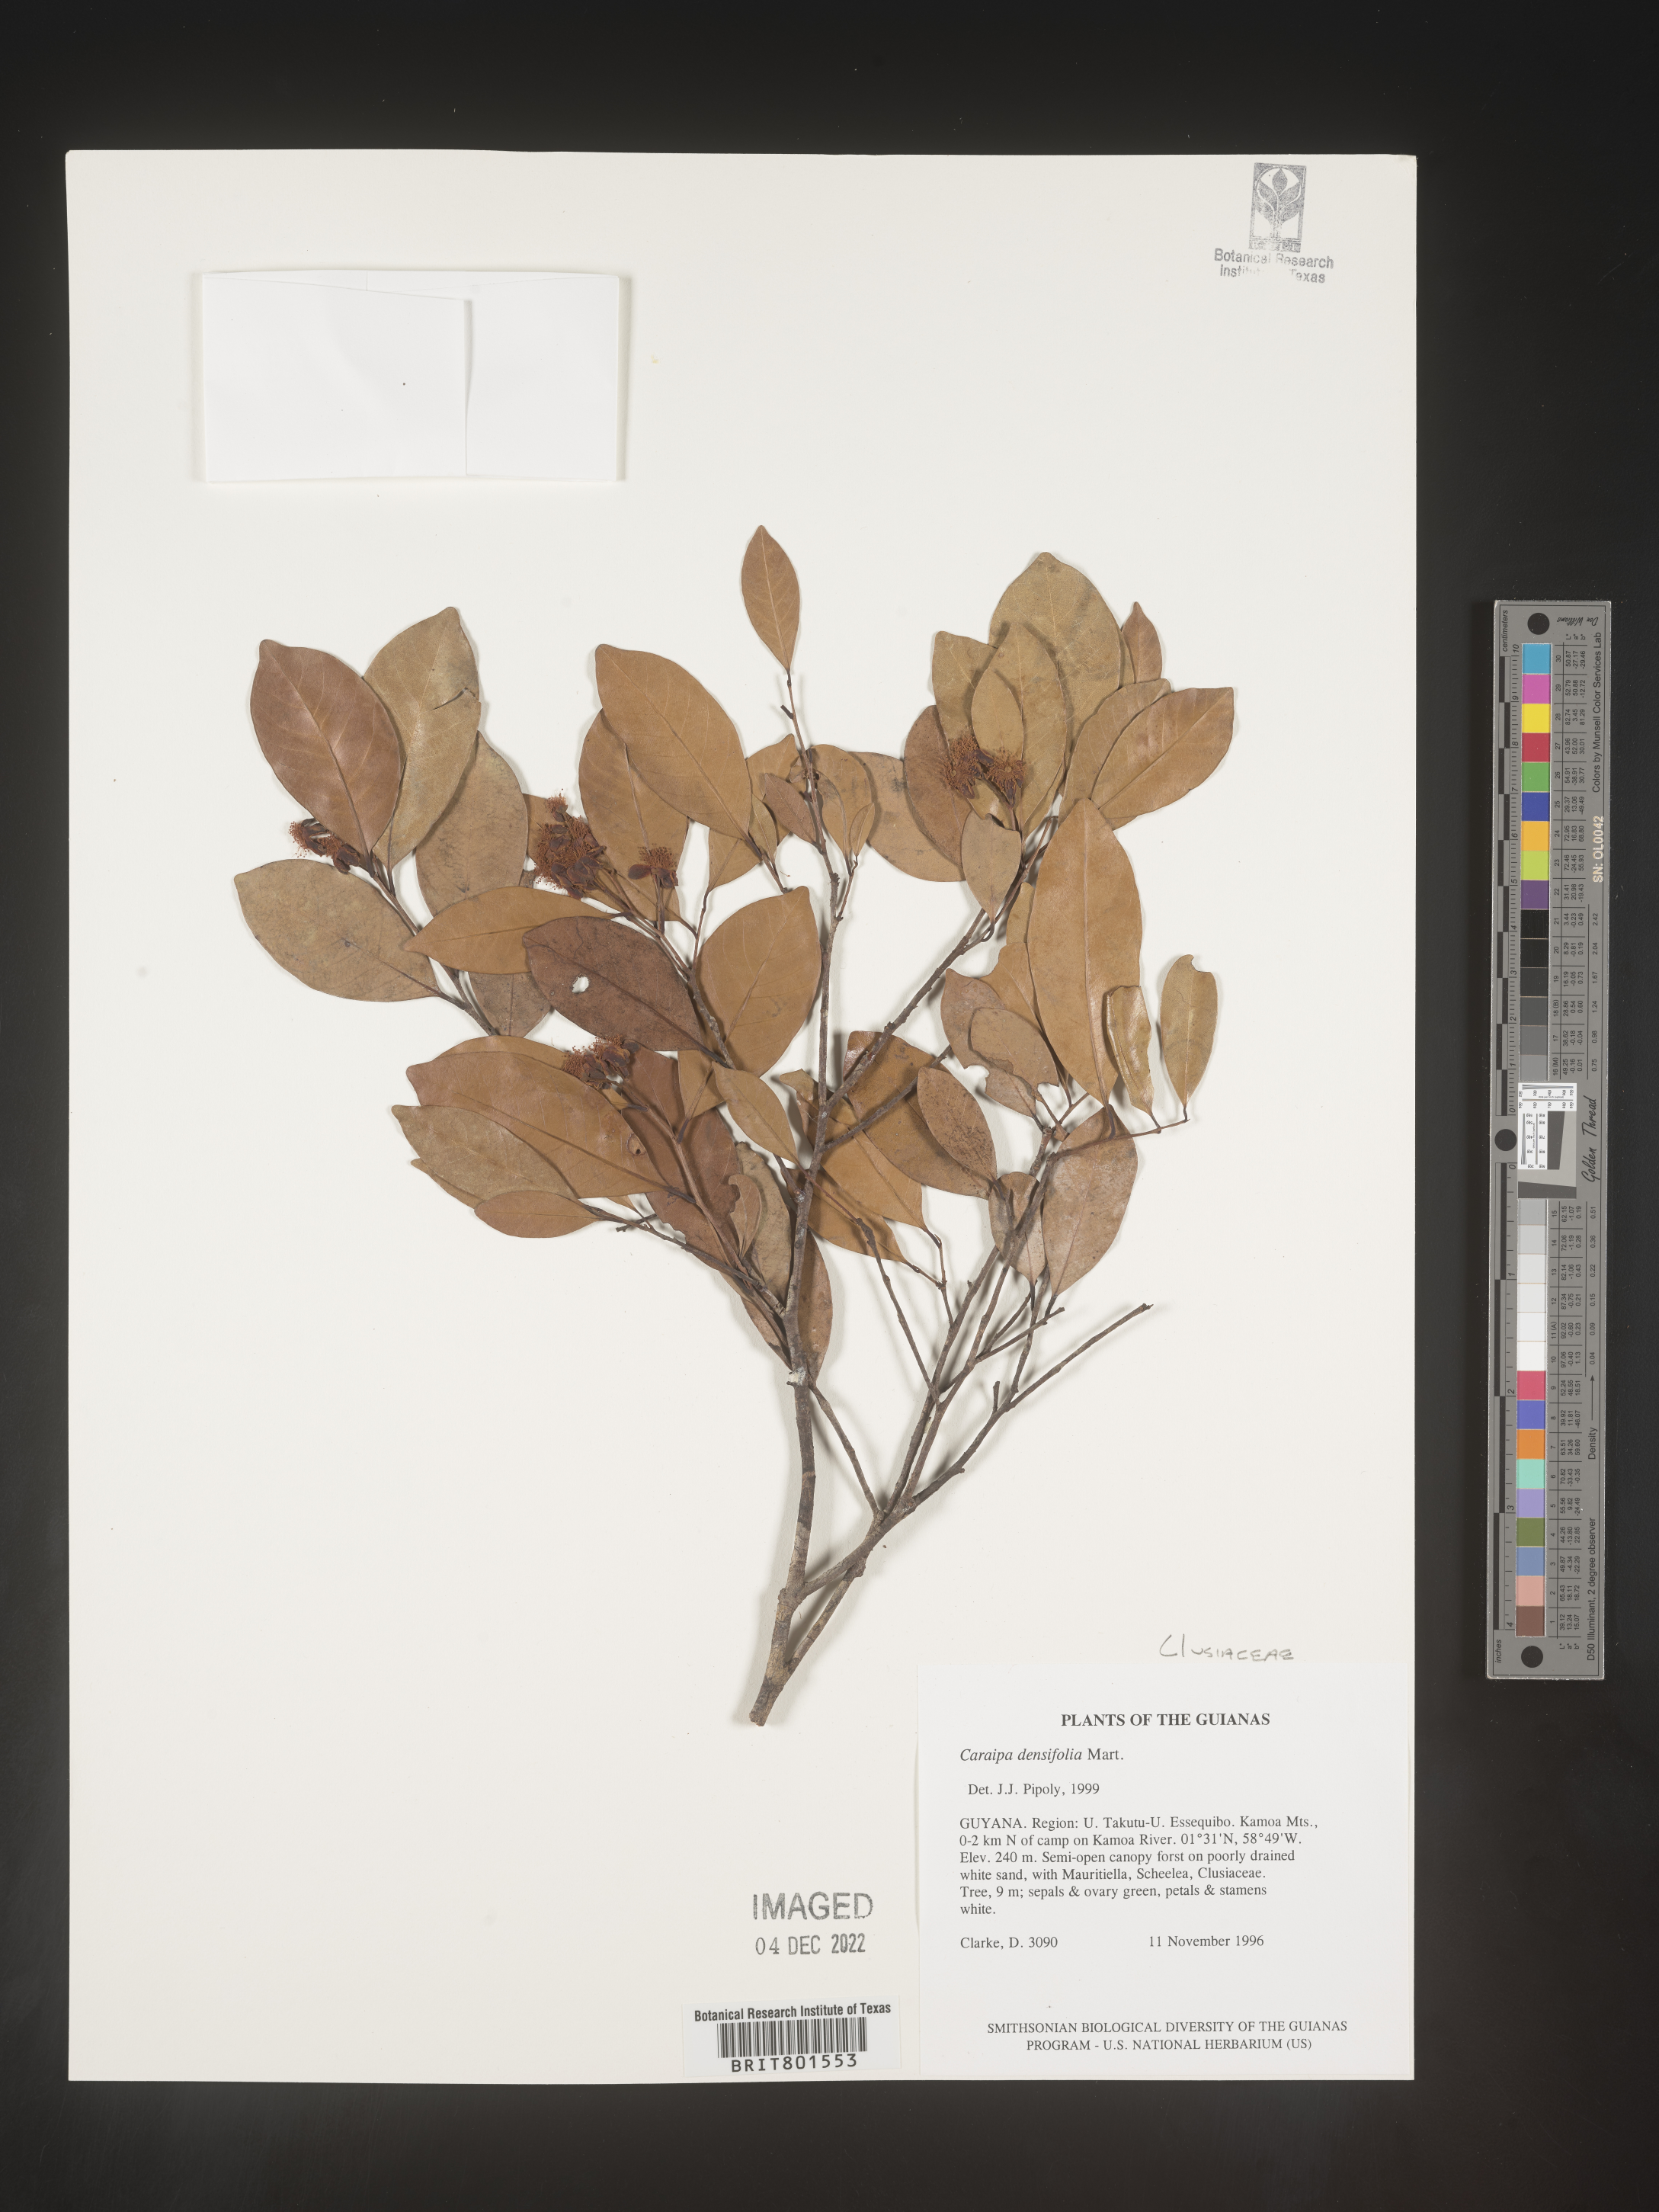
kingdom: Plantae
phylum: Tracheophyta
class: Magnoliopsida
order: Malpighiales
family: Calophyllaceae
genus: Caraipa
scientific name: Caraipa
